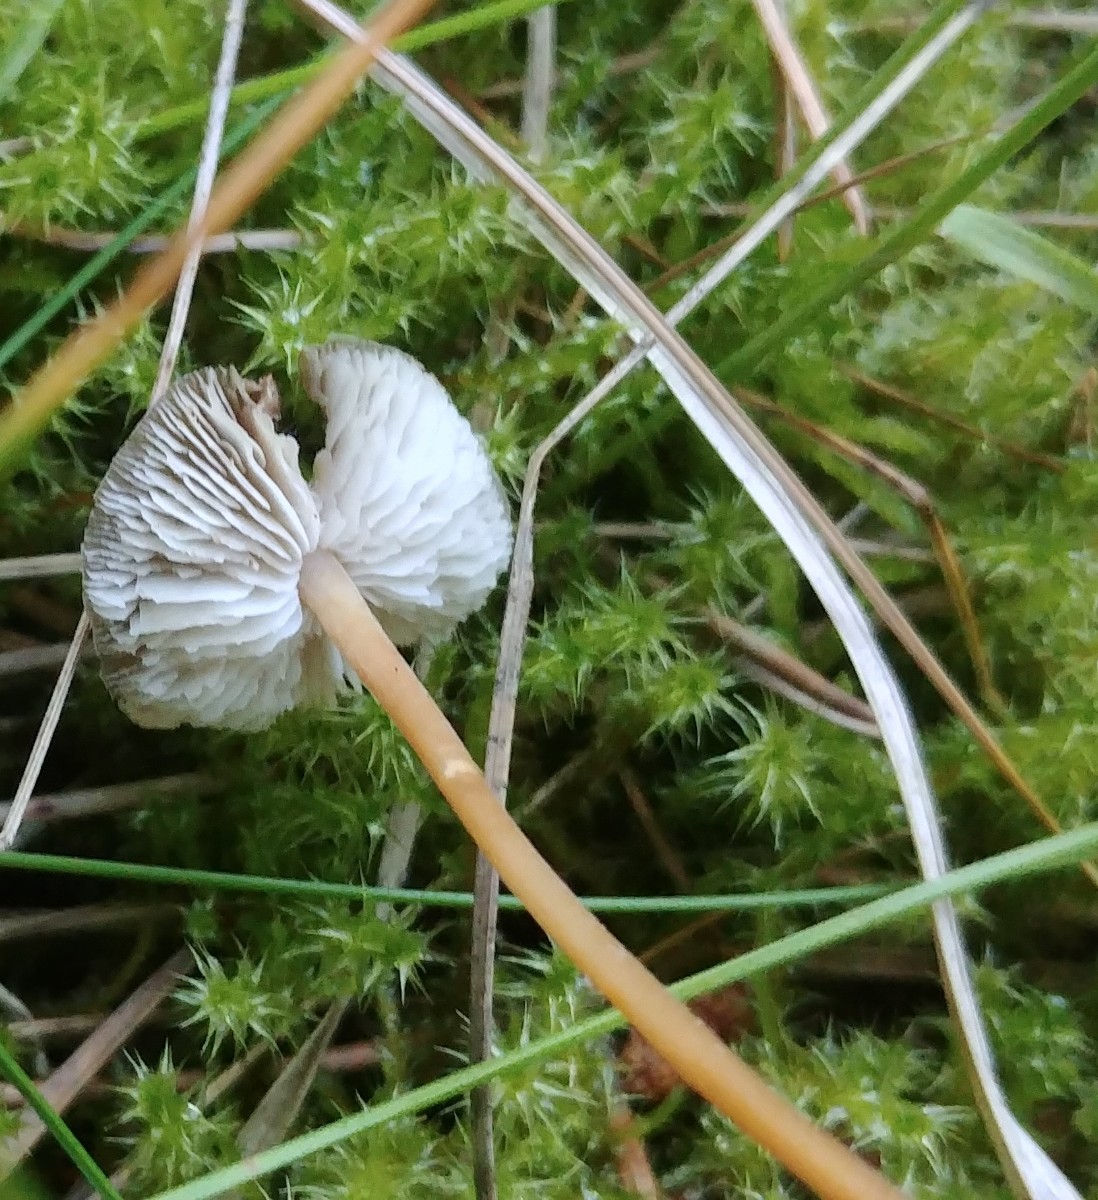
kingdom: Fungi
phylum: Basidiomycota
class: Agaricomycetes
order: Agaricales
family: Physalacriaceae
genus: Strobilurus
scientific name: Strobilurus
